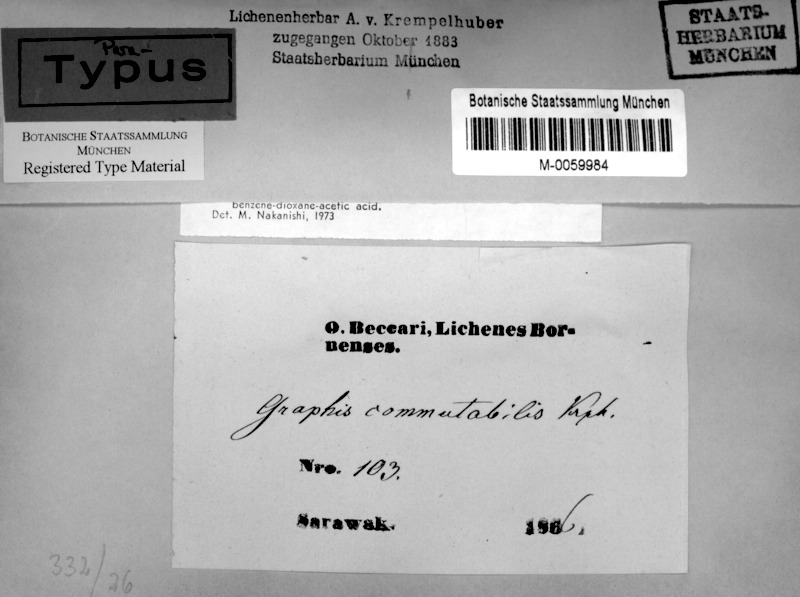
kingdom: Fungi
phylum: Ascomycota
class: Lecanoromycetes
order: Ostropales
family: Graphidaceae
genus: Platygramme
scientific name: Platygramme commutabilis
